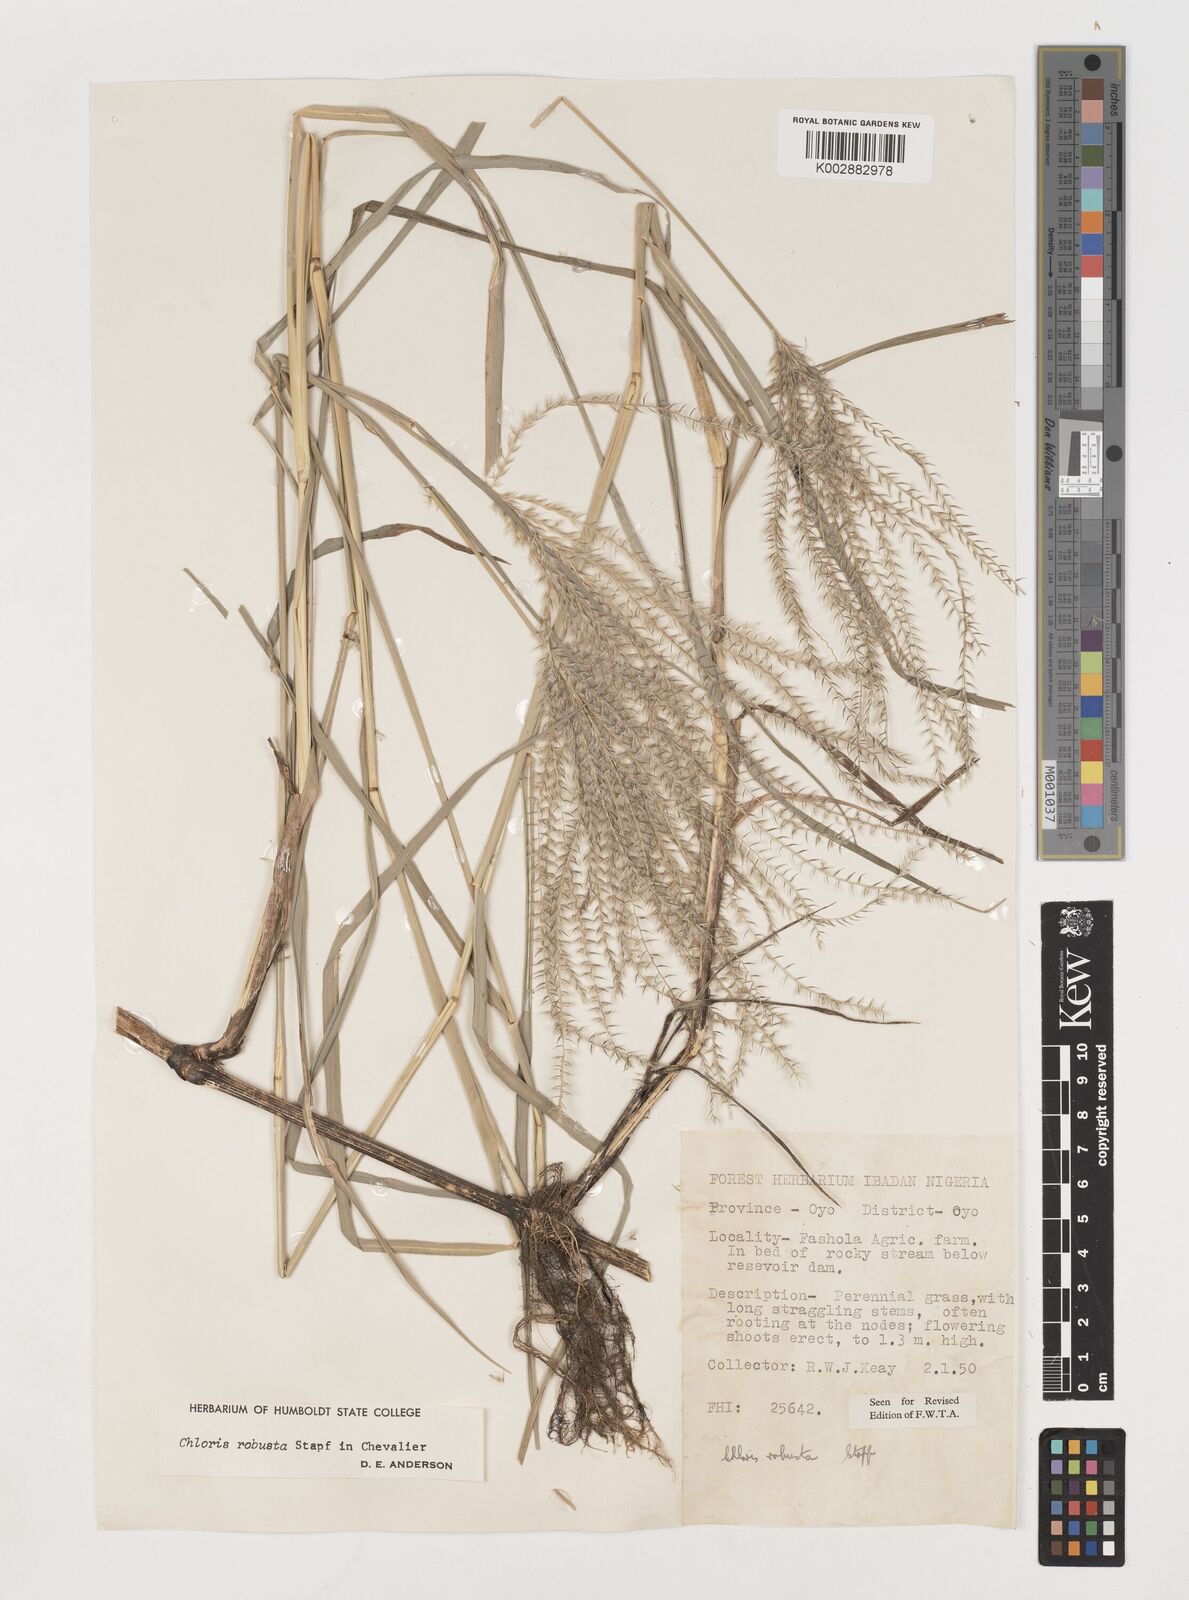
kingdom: Plantae
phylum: Tracheophyta
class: Liliopsida
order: Poales
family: Poaceae
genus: Chloris
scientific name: Chloris robusta
